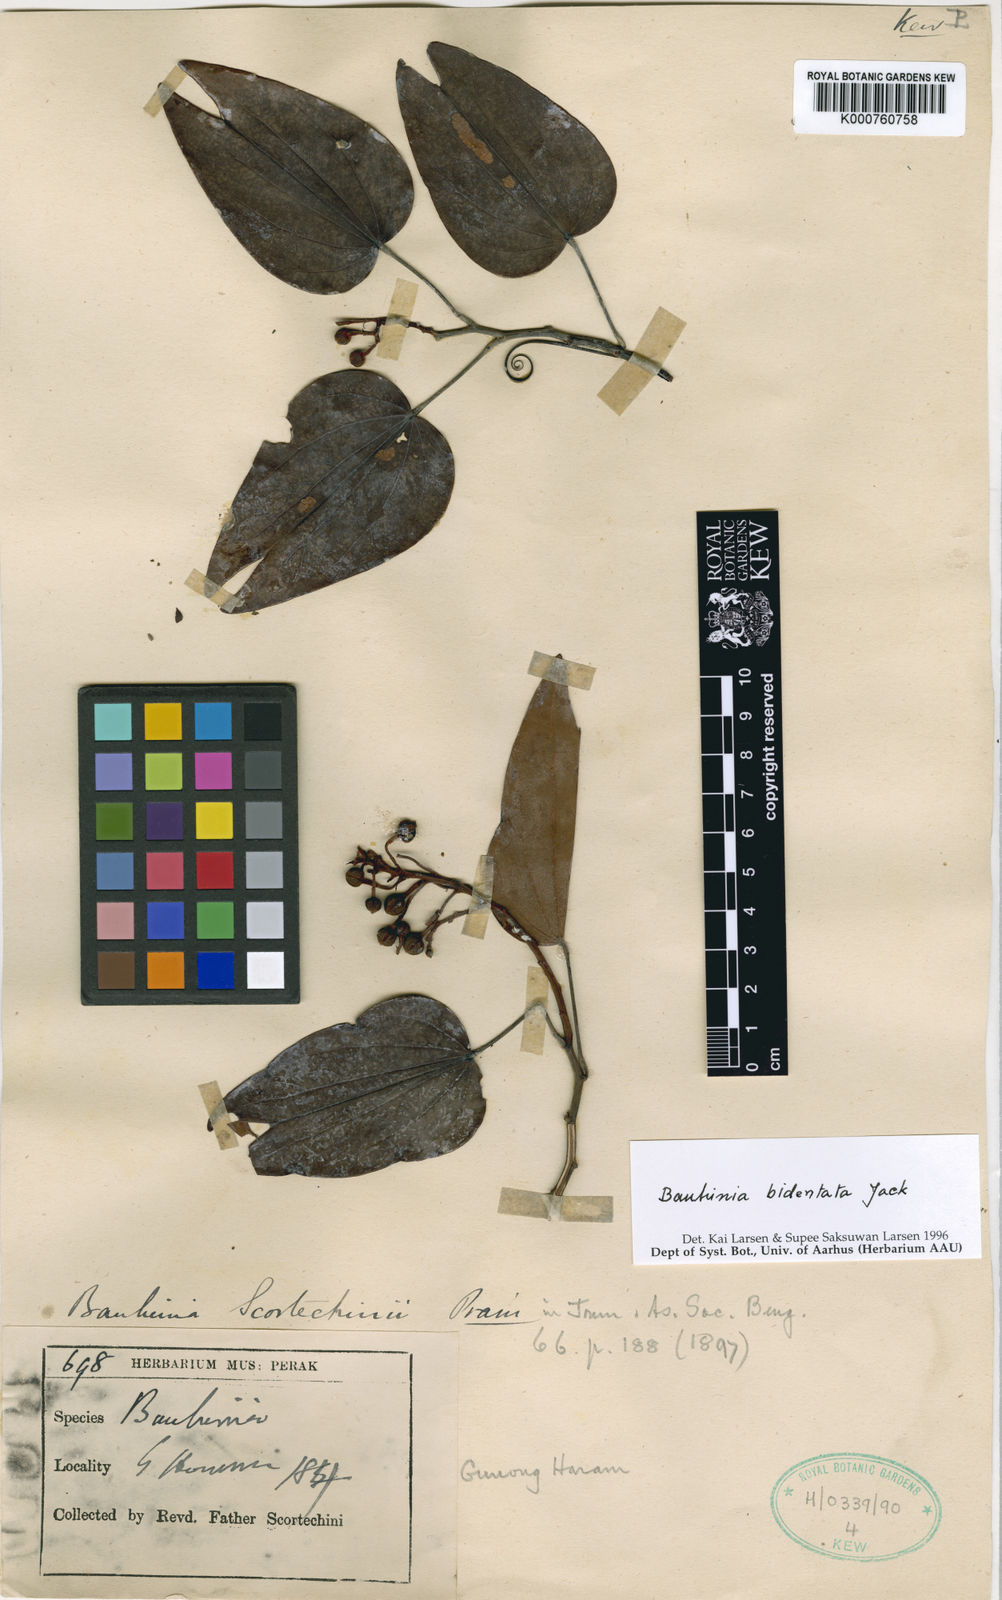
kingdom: Plantae
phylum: Tracheophyta
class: Magnoliopsida
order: Fabales
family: Fabaceae
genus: Phanera
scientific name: Phanera bidentata
